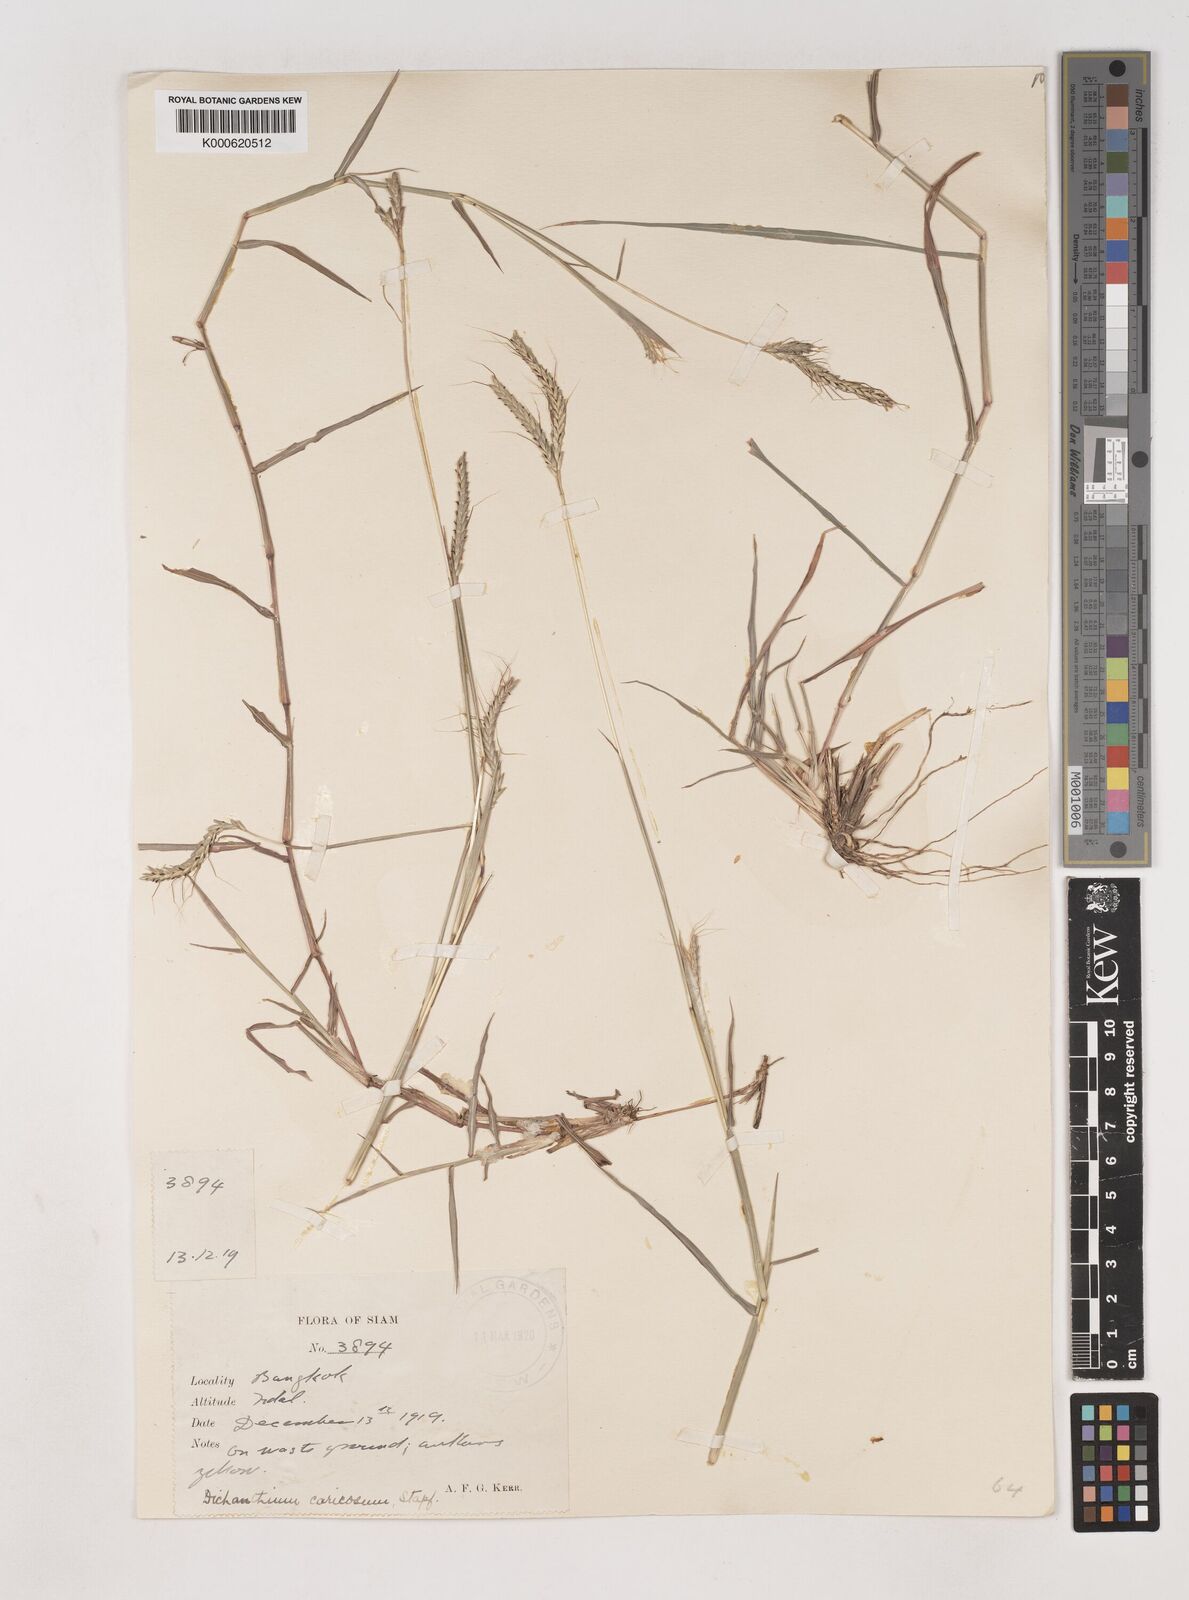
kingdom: Plantae
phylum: Tracheophyta
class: Liliopsida
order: Poales
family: Poaceae
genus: Dichanthium
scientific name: Dichanthium caricosum
